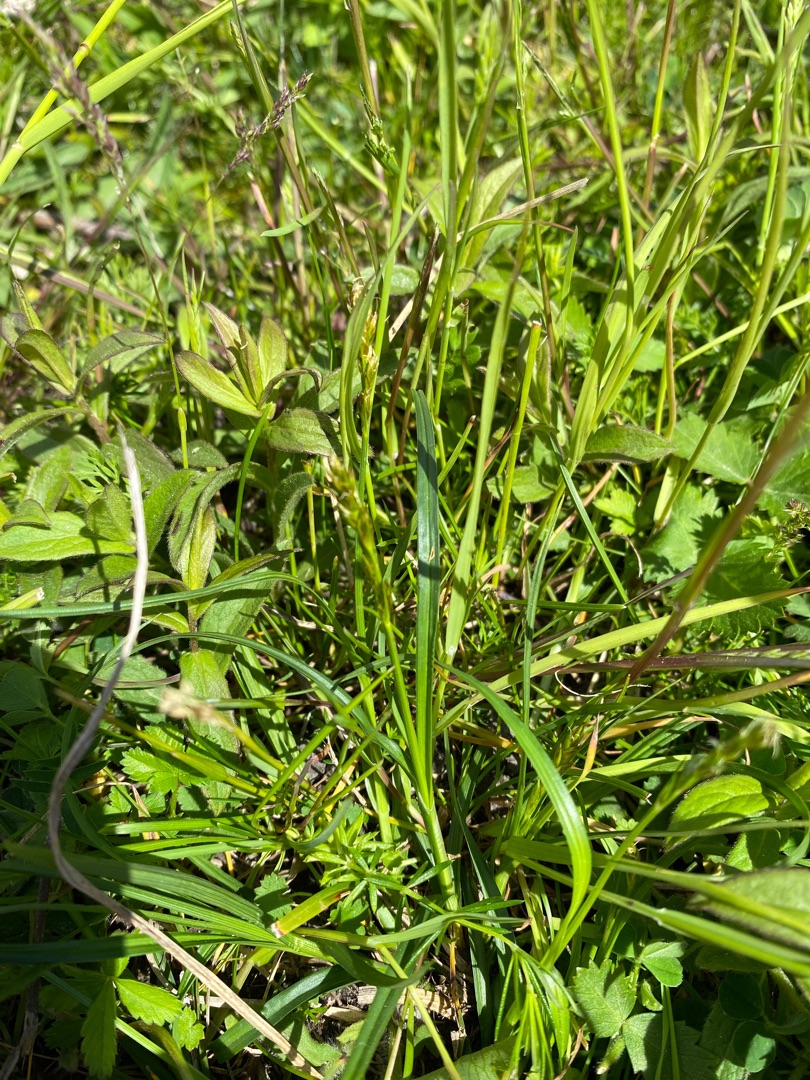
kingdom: Plantae
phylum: Tracheophyta
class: Liliopsida
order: Poales
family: Cyperaceae
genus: Carex
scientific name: Carex
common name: Starslægten
